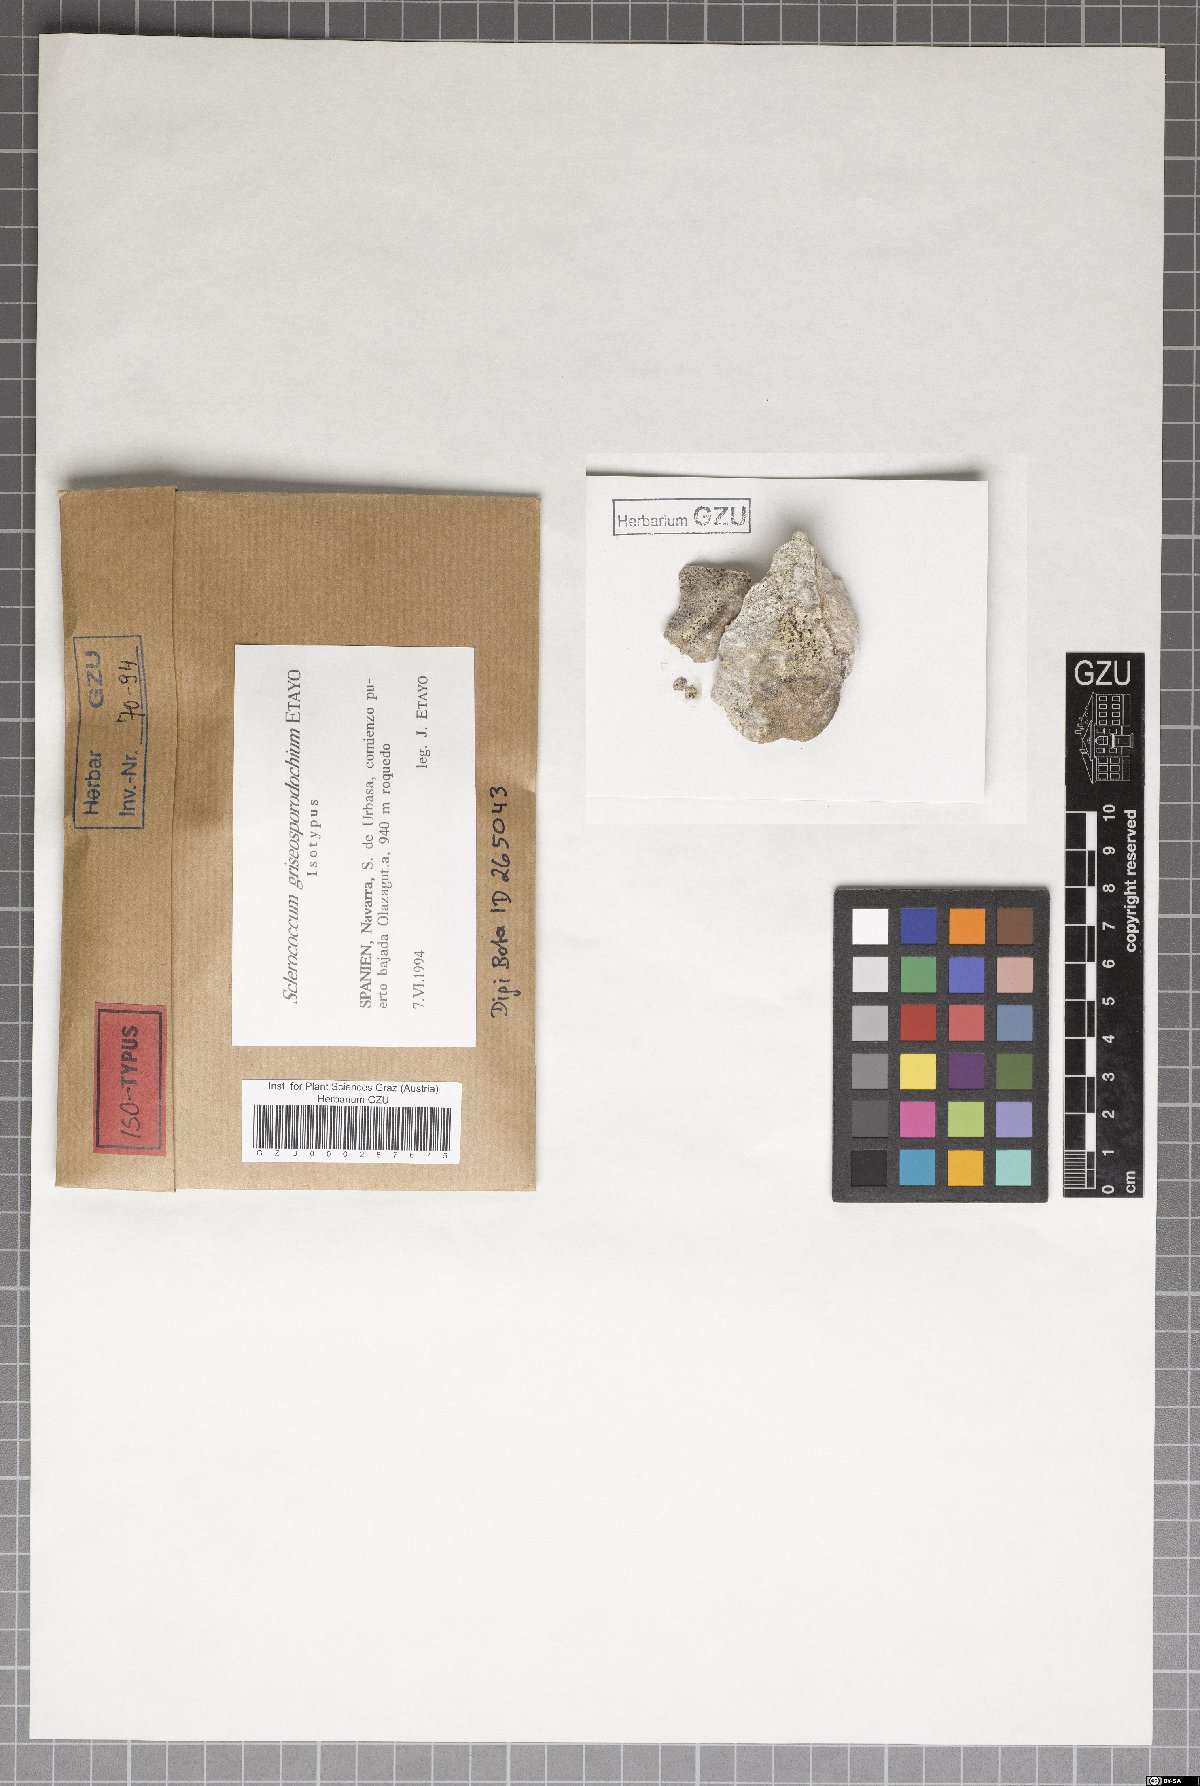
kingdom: Fungi
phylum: Ascomycota
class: Eurotiomycetes
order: Sclerococcales
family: Sclerococcaceae
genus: Sclerococcum
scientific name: Sclerococcum griseisporodochium
